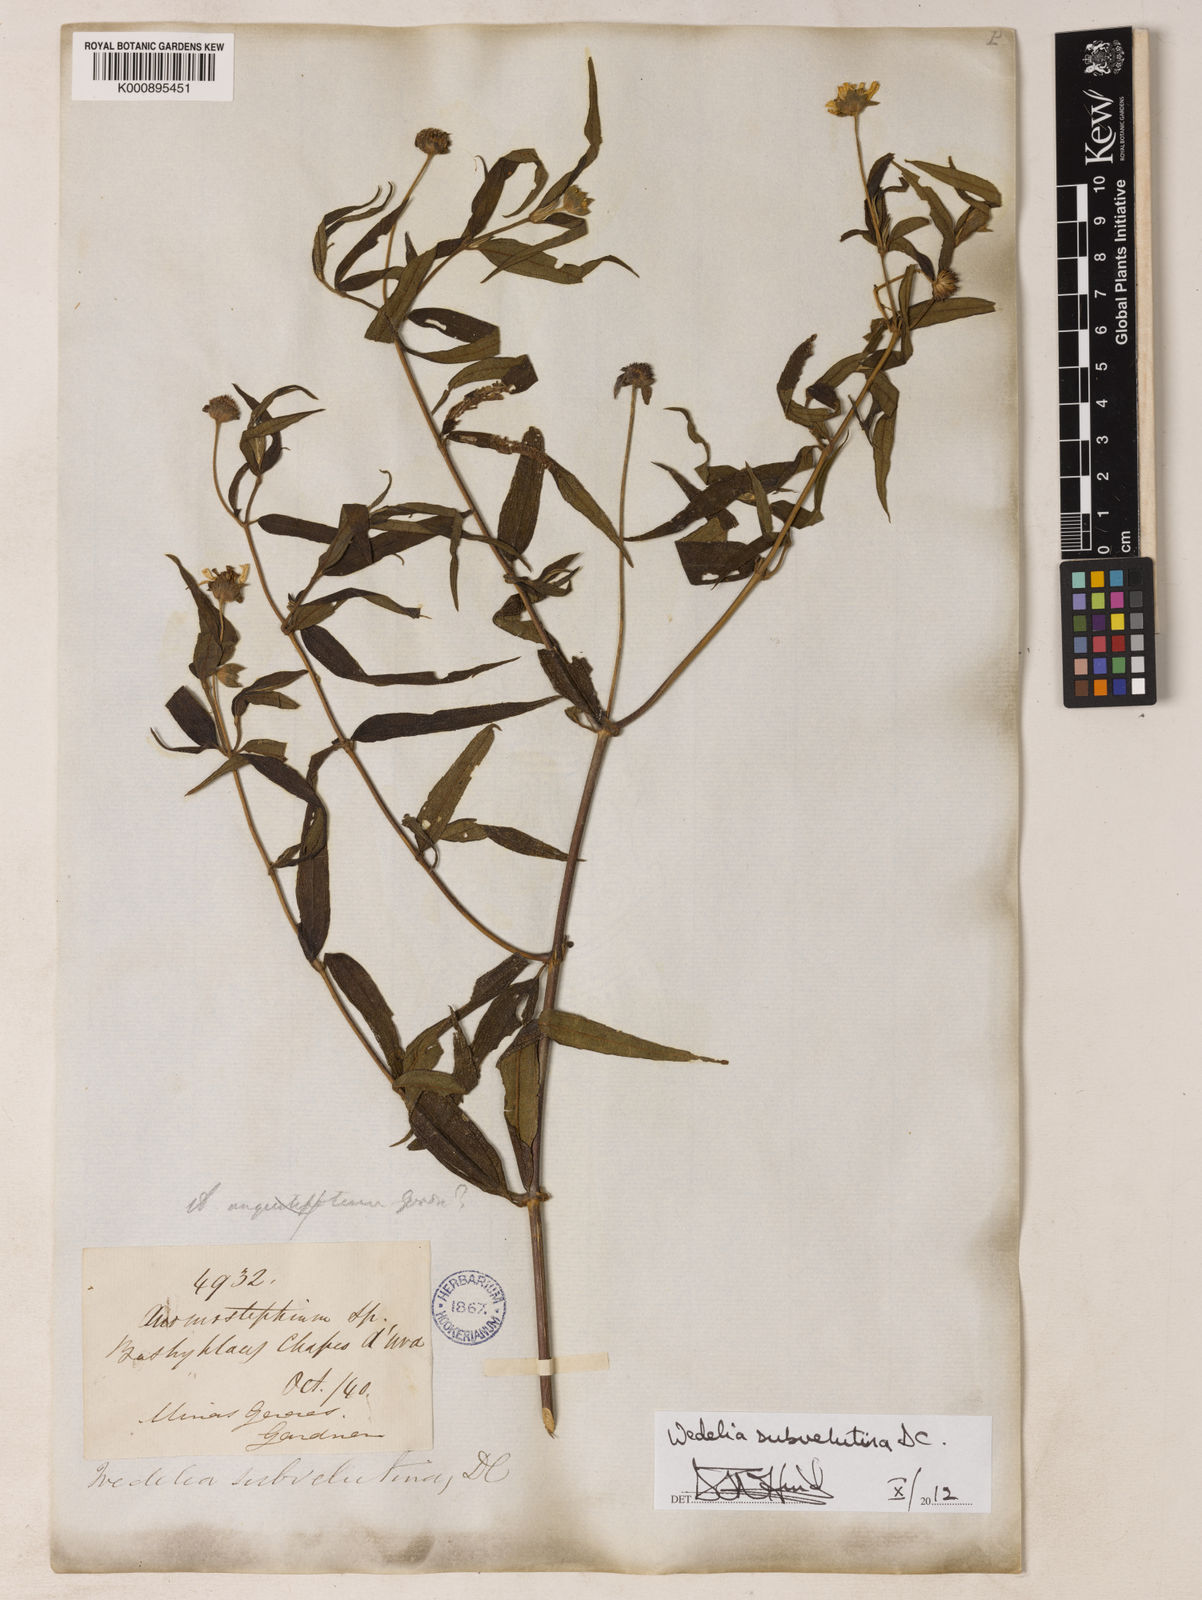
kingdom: Plantae
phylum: Tracheophyta
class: Magnoliopsida
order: Asterales
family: Asteraceae
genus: Wedelia
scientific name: Wedelia subvelutina
